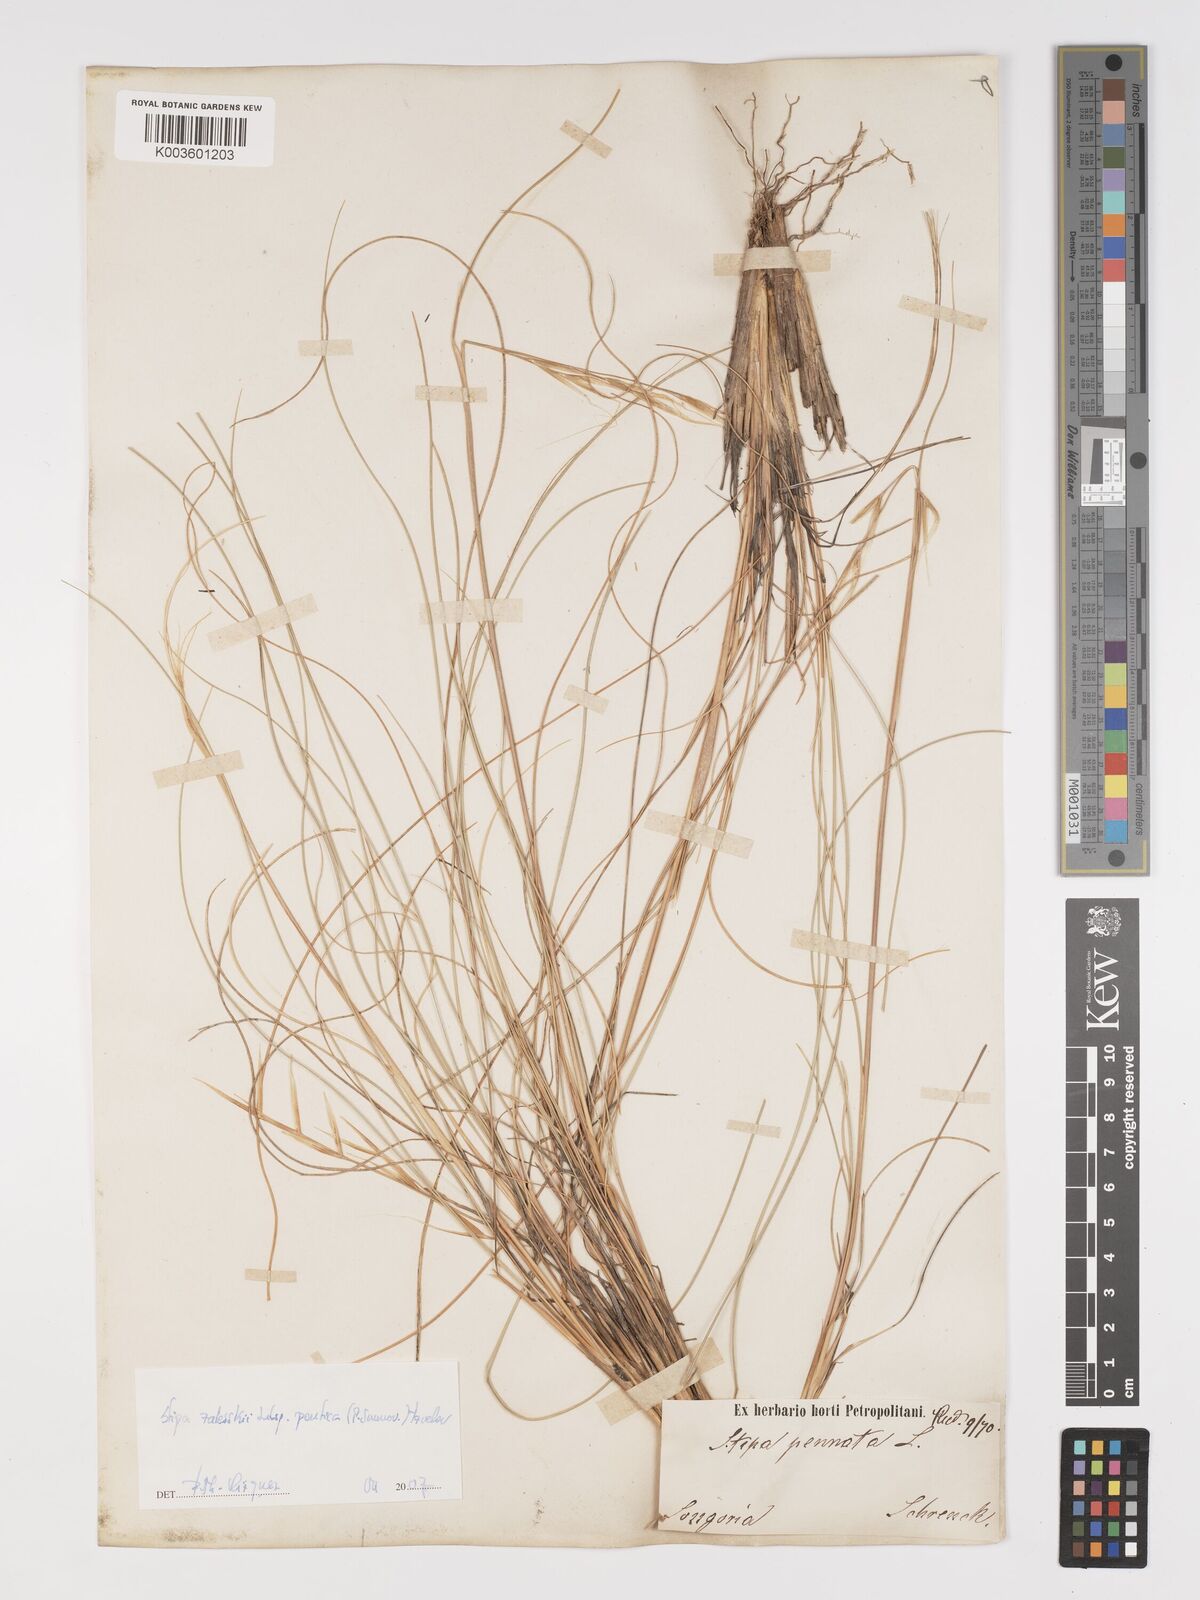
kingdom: Plantae
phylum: Tracheophyta
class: Liliopsida
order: Poales
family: Poaceae
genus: Stipa
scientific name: Stipa
